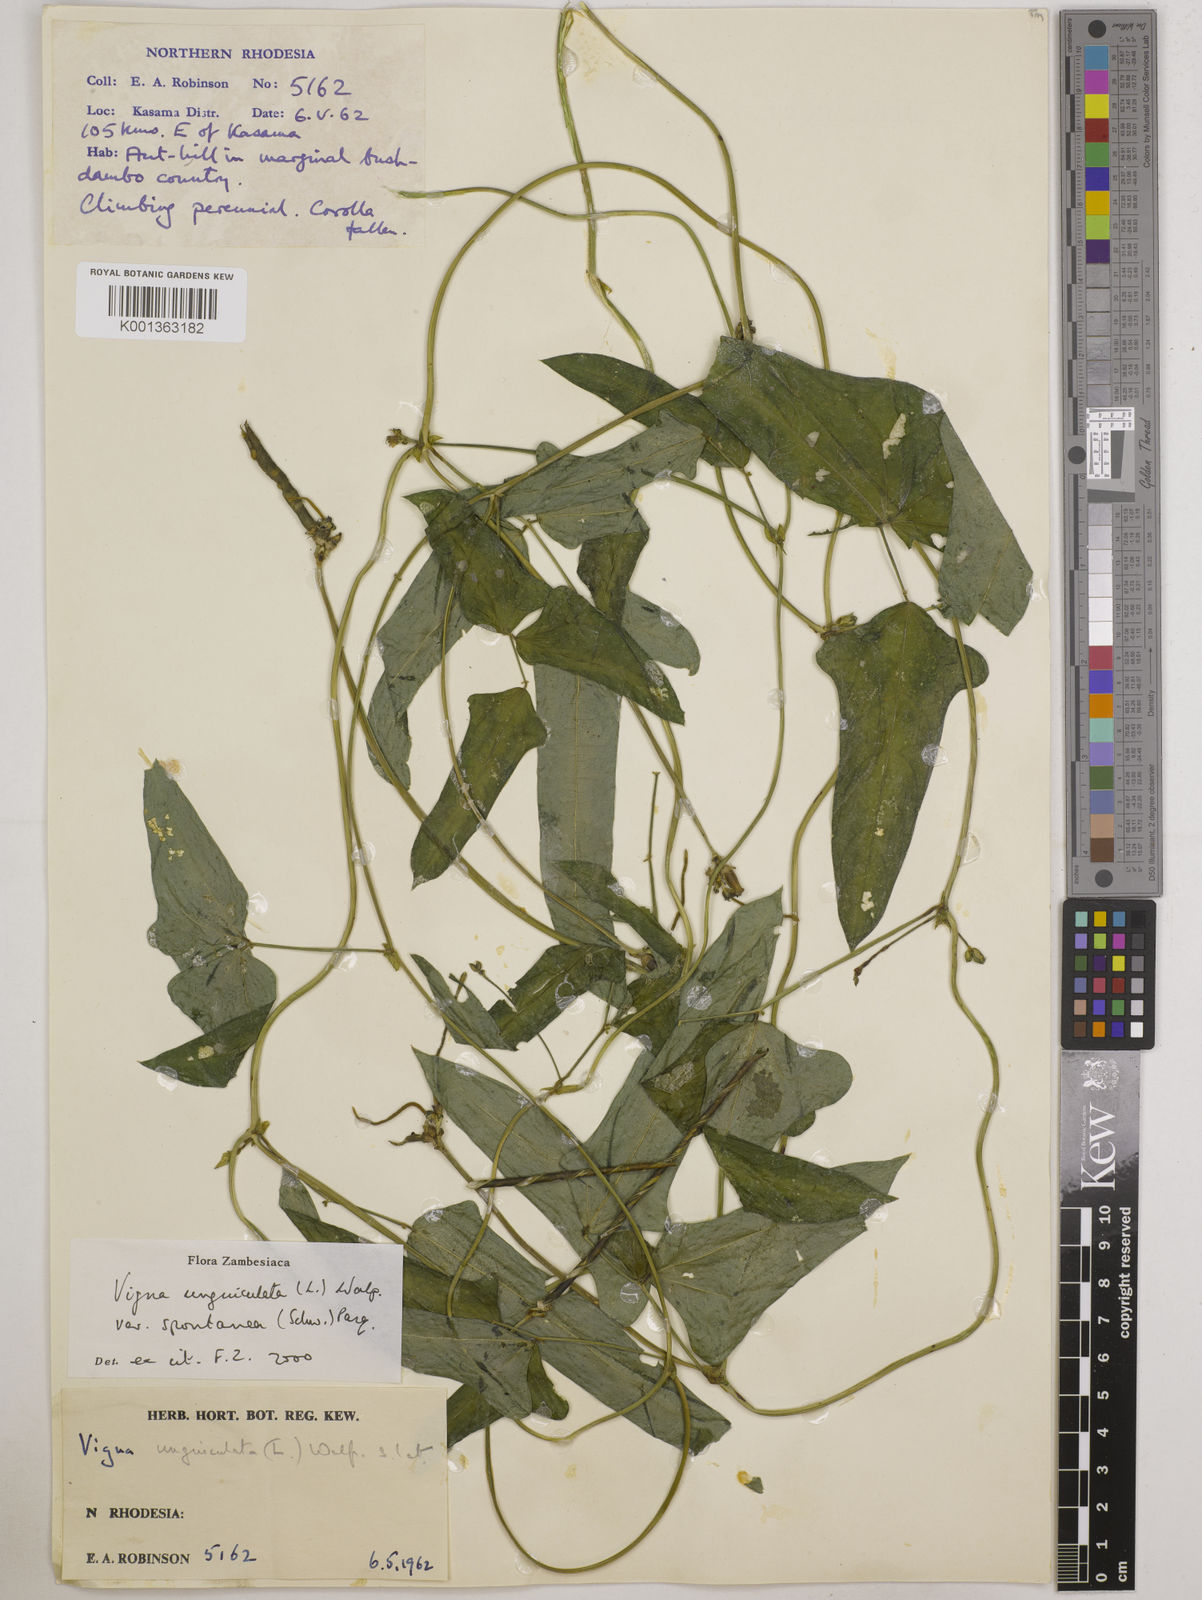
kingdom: Plantae
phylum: Tracheophyta
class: Magnoliopsida
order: Fabales
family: Fabaceae
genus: Vigna
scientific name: Vigna unguiculata
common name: Cowpea
